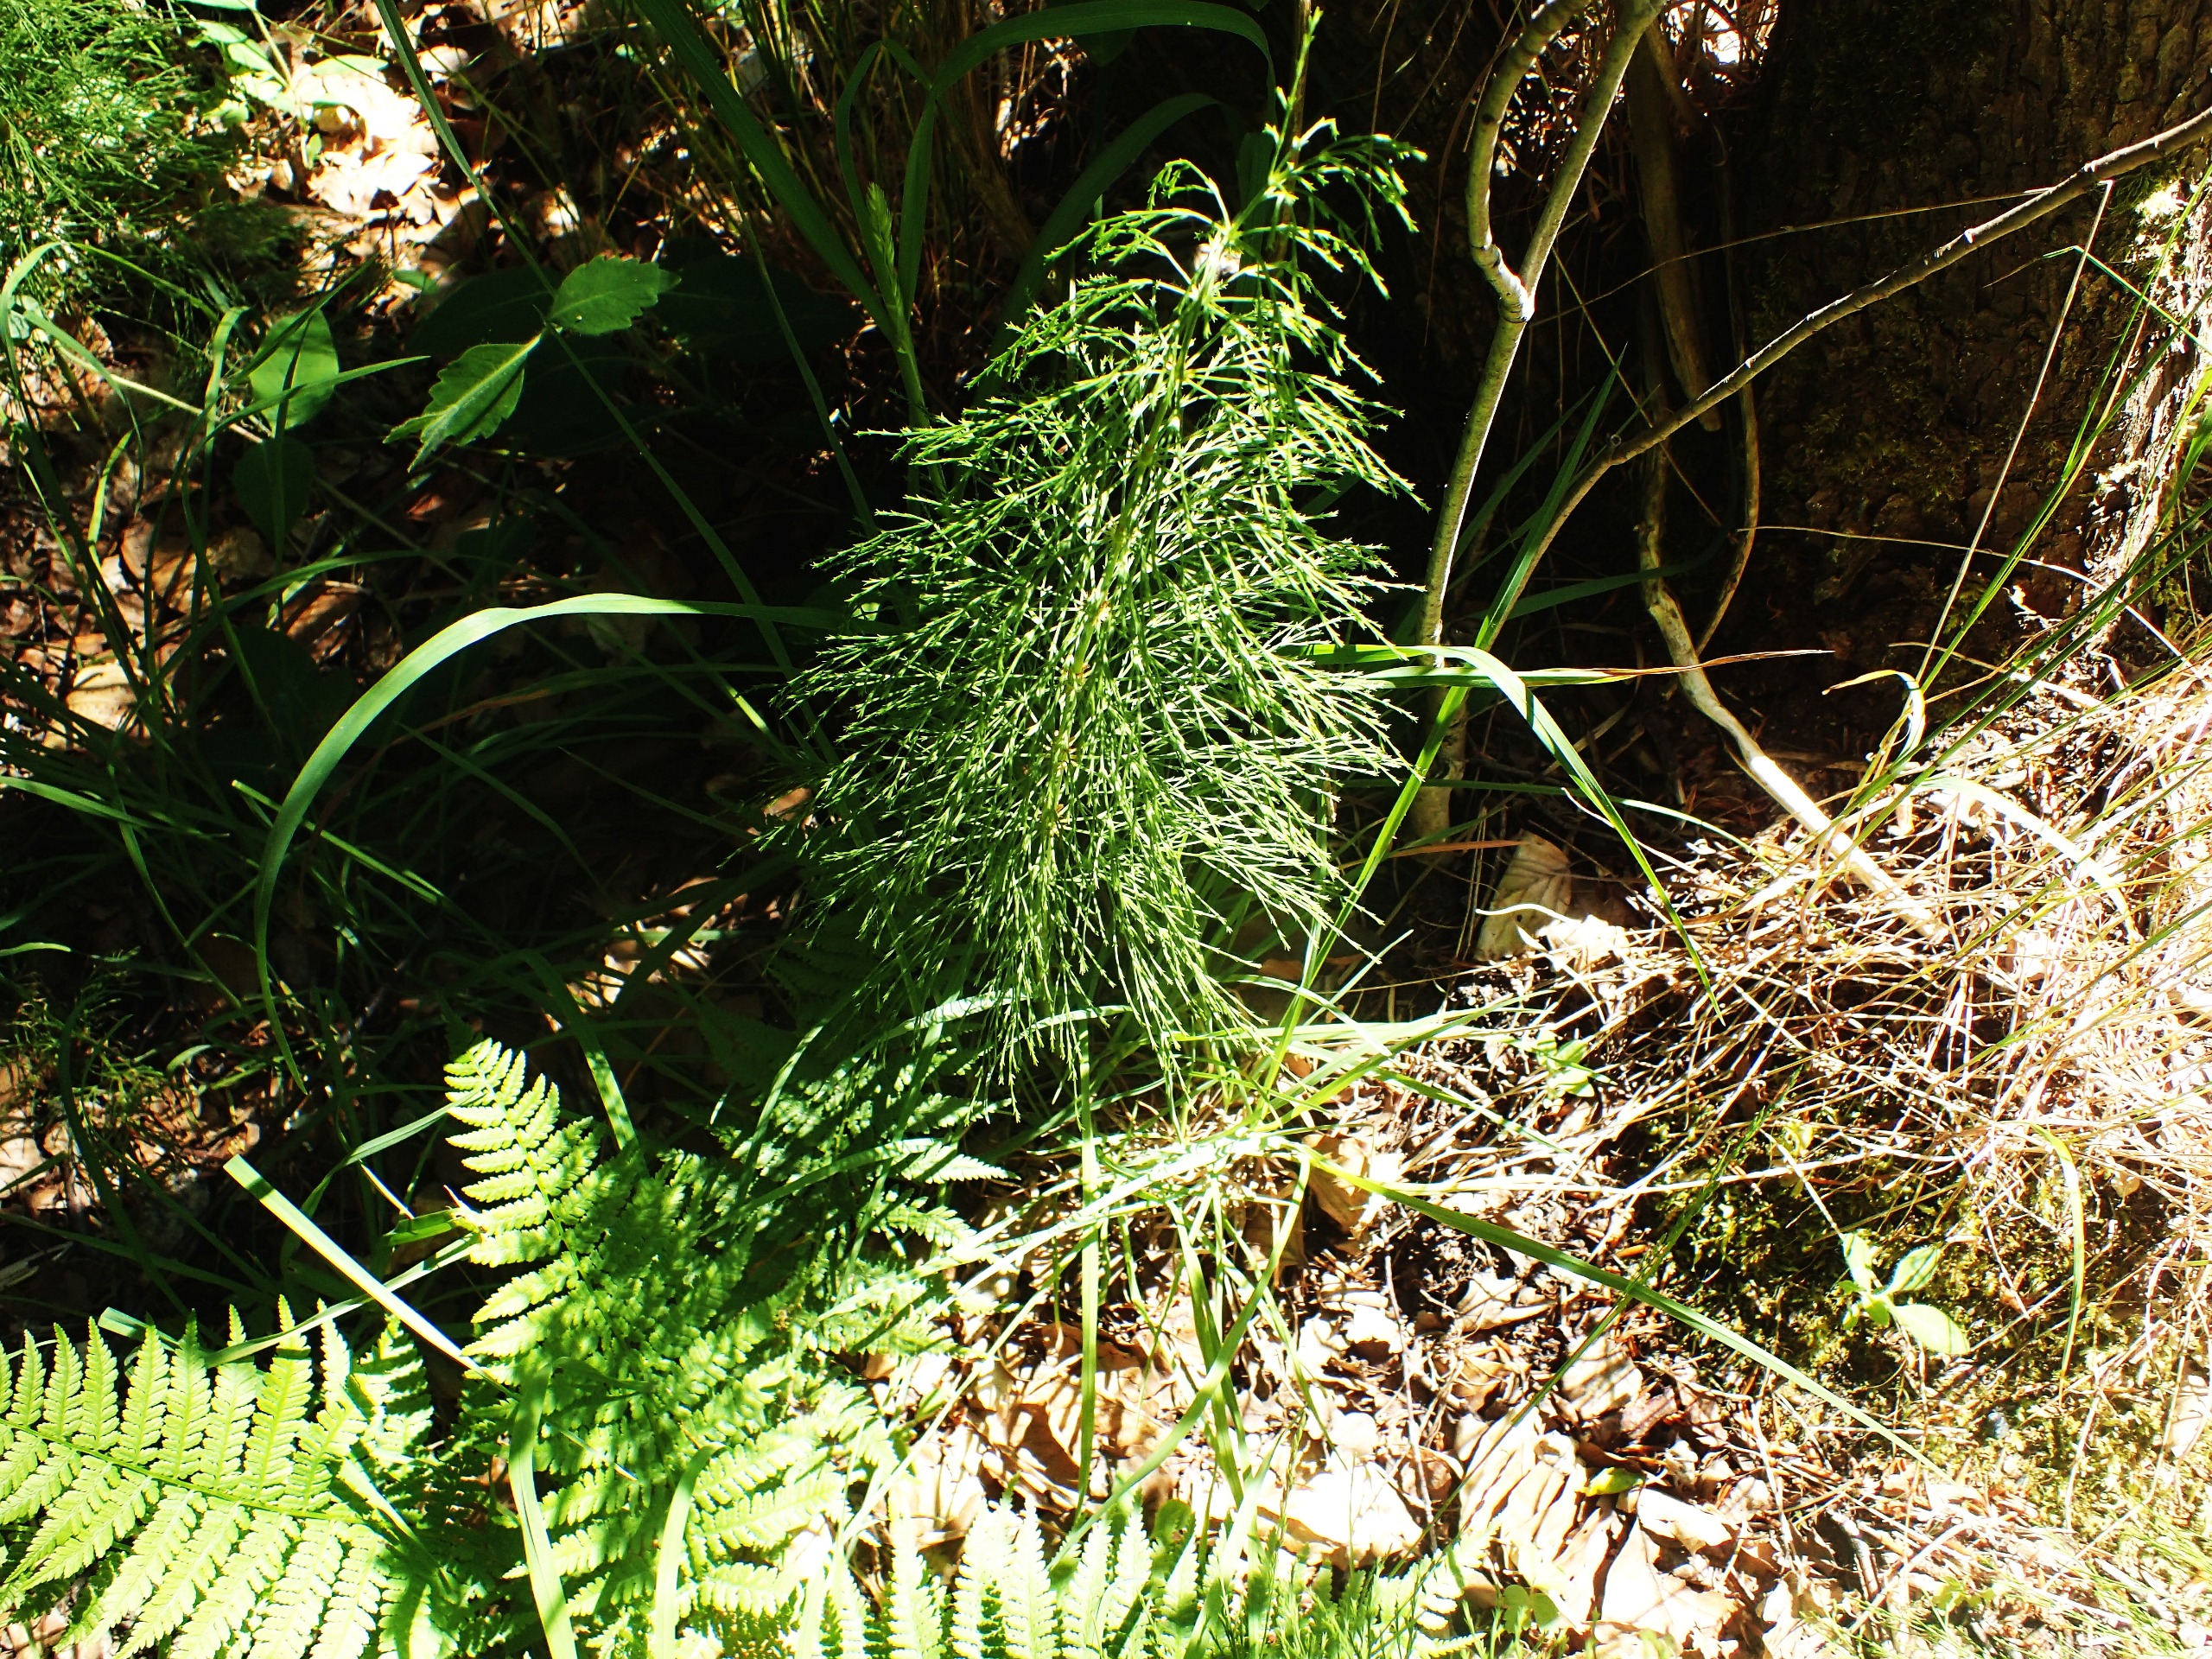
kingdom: Plantae
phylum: Tracheophyta
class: Polypodiopsida
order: Equisetales
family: Equisetaceae
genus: Equisetum
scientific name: Equisetum sylvaticum
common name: Skov-padderok
